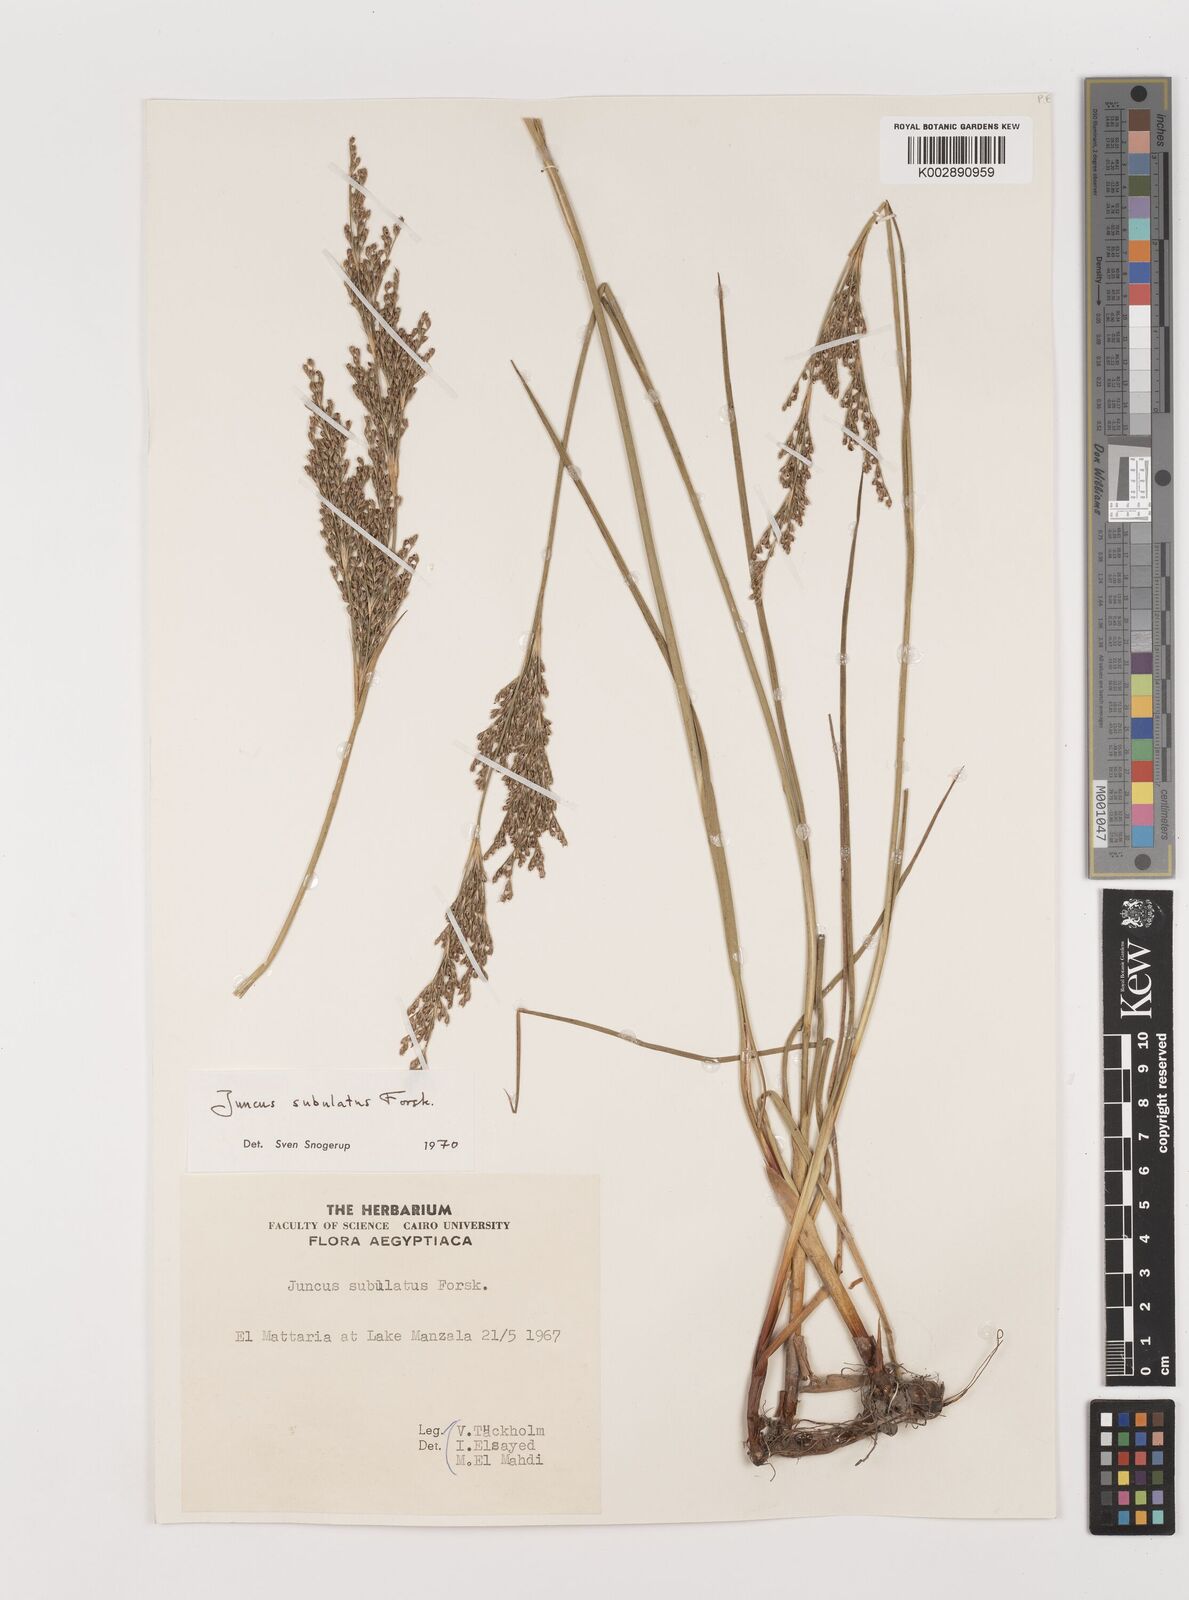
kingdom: Plantae
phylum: Tracheophyta
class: Liliopsida
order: Poales
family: Juncaceae
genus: Juncus
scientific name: Juncus subulatus
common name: Somerset rush
